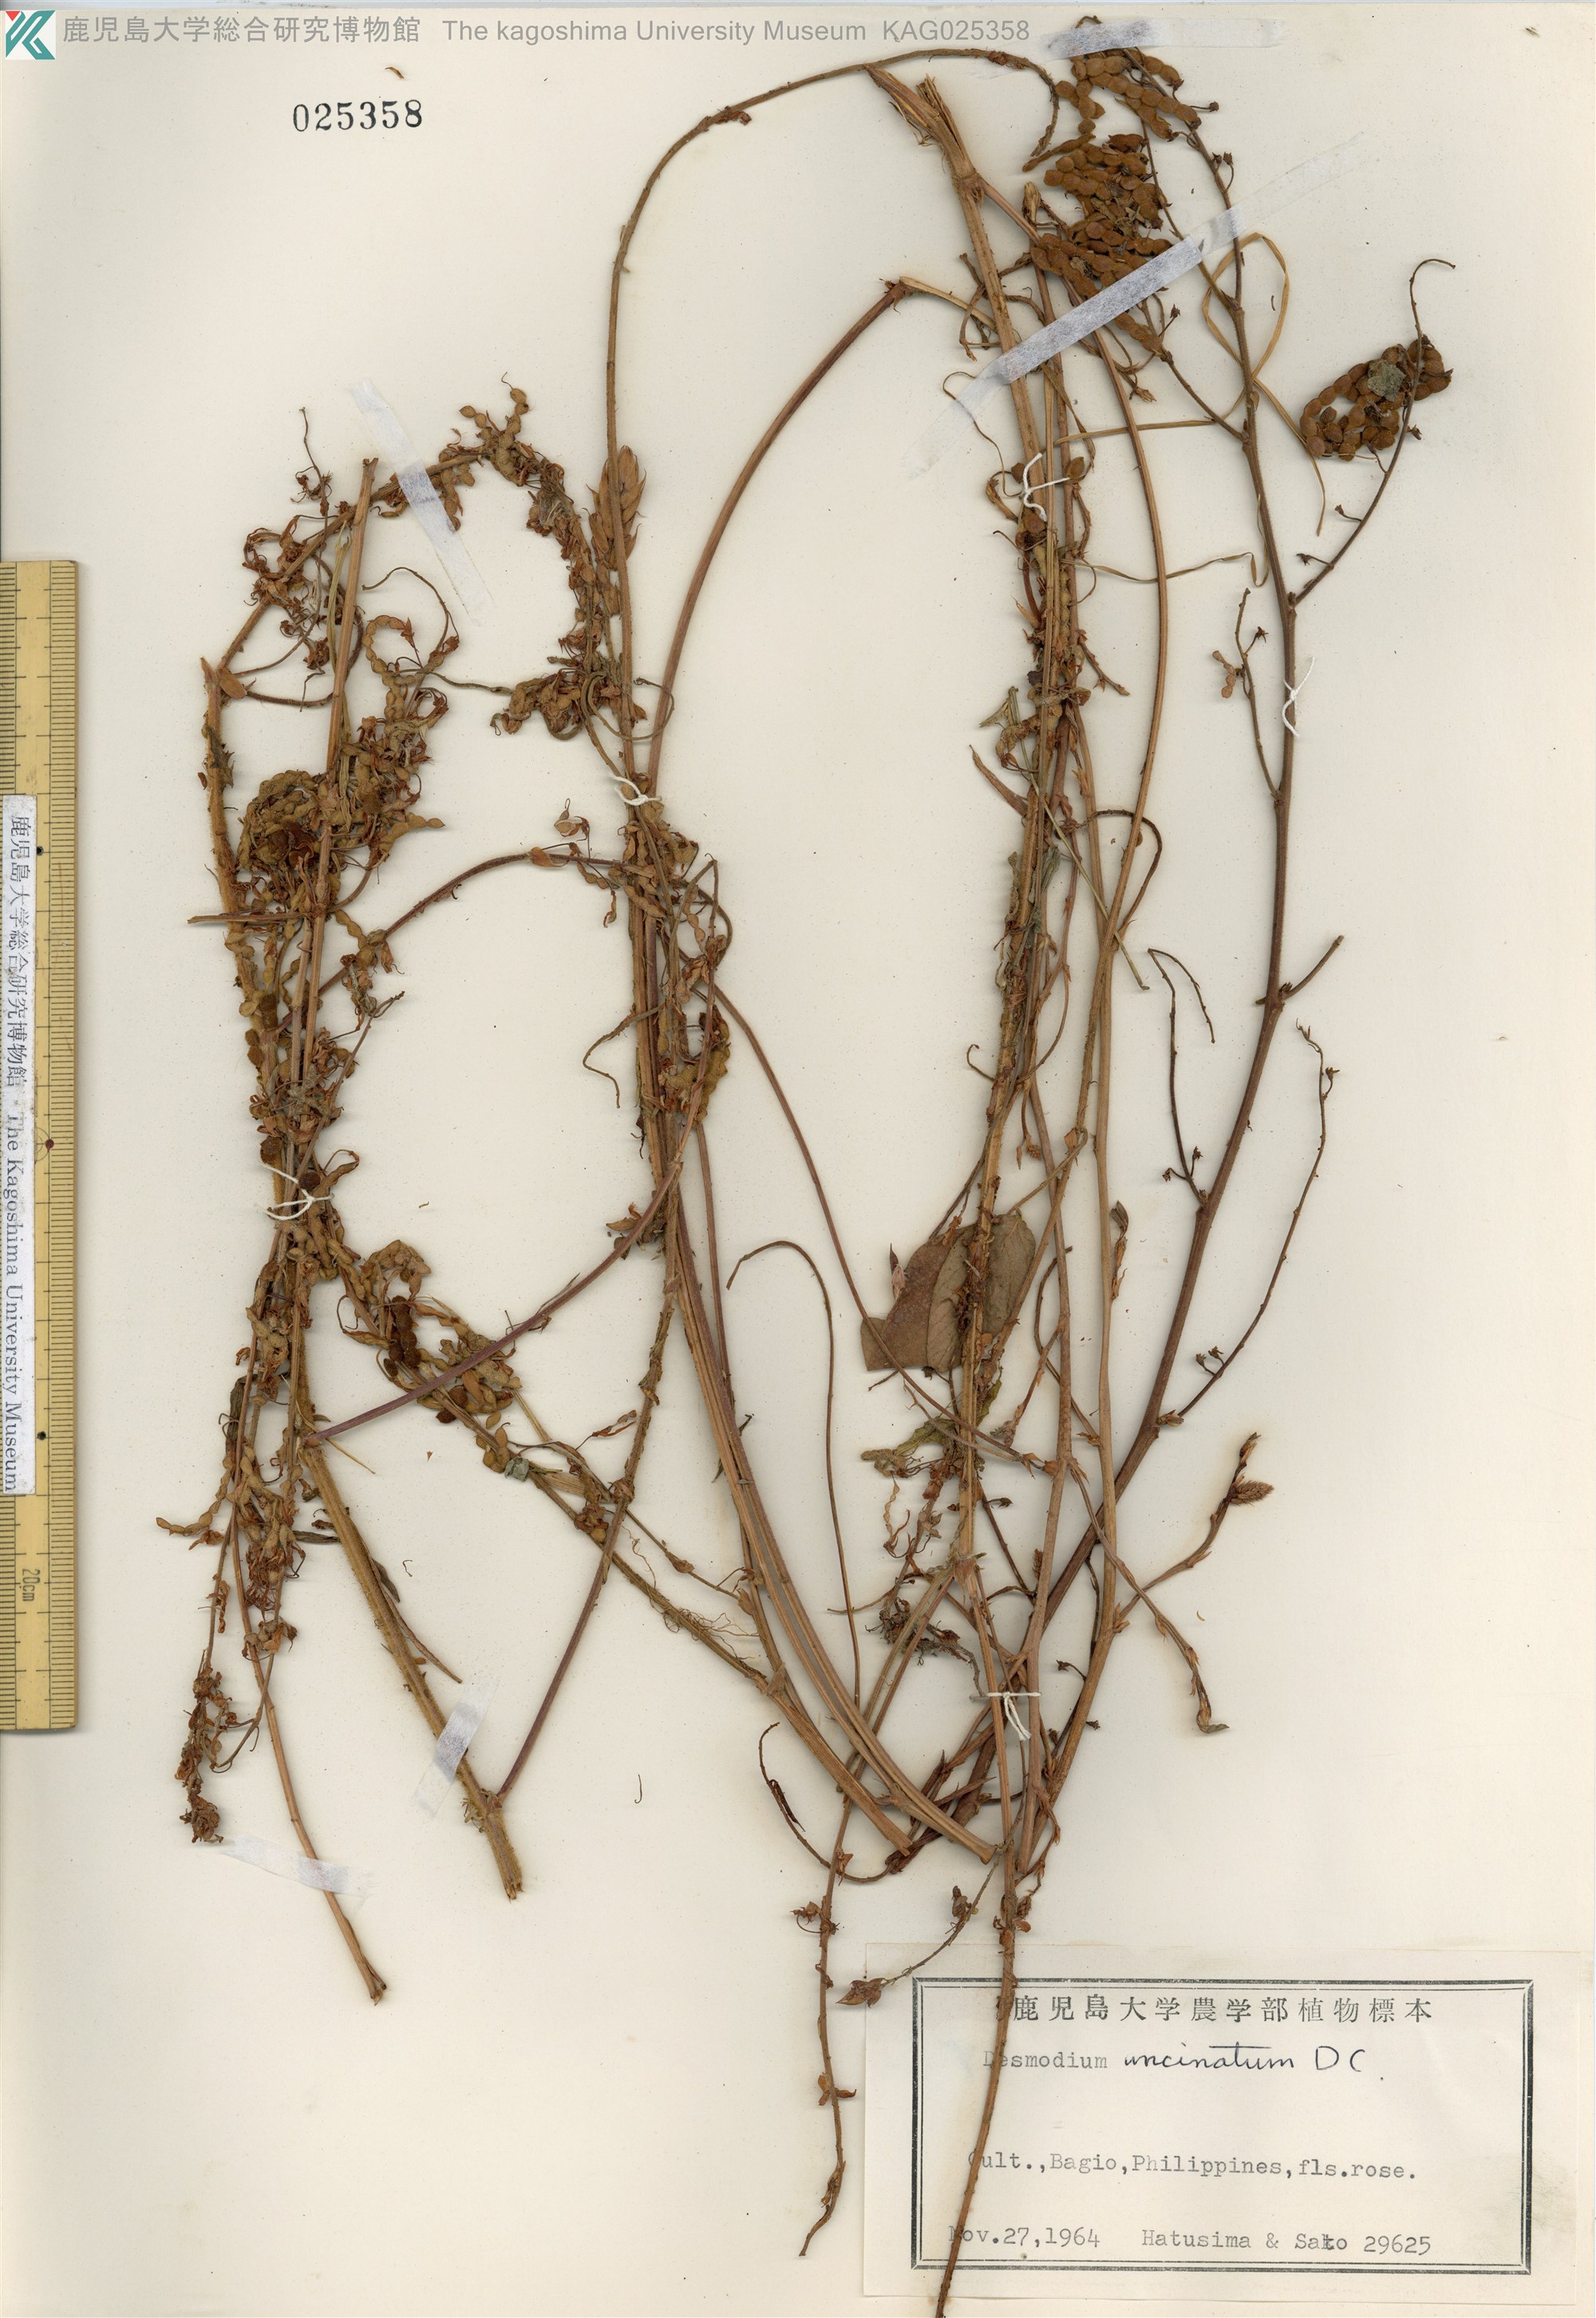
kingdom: Plantae
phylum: Tracheophyta
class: Magnoliopsida
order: Fabales
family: Fabaceae
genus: Desmodium
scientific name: Desmodium uncinatum
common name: Silverleaf desmodium
